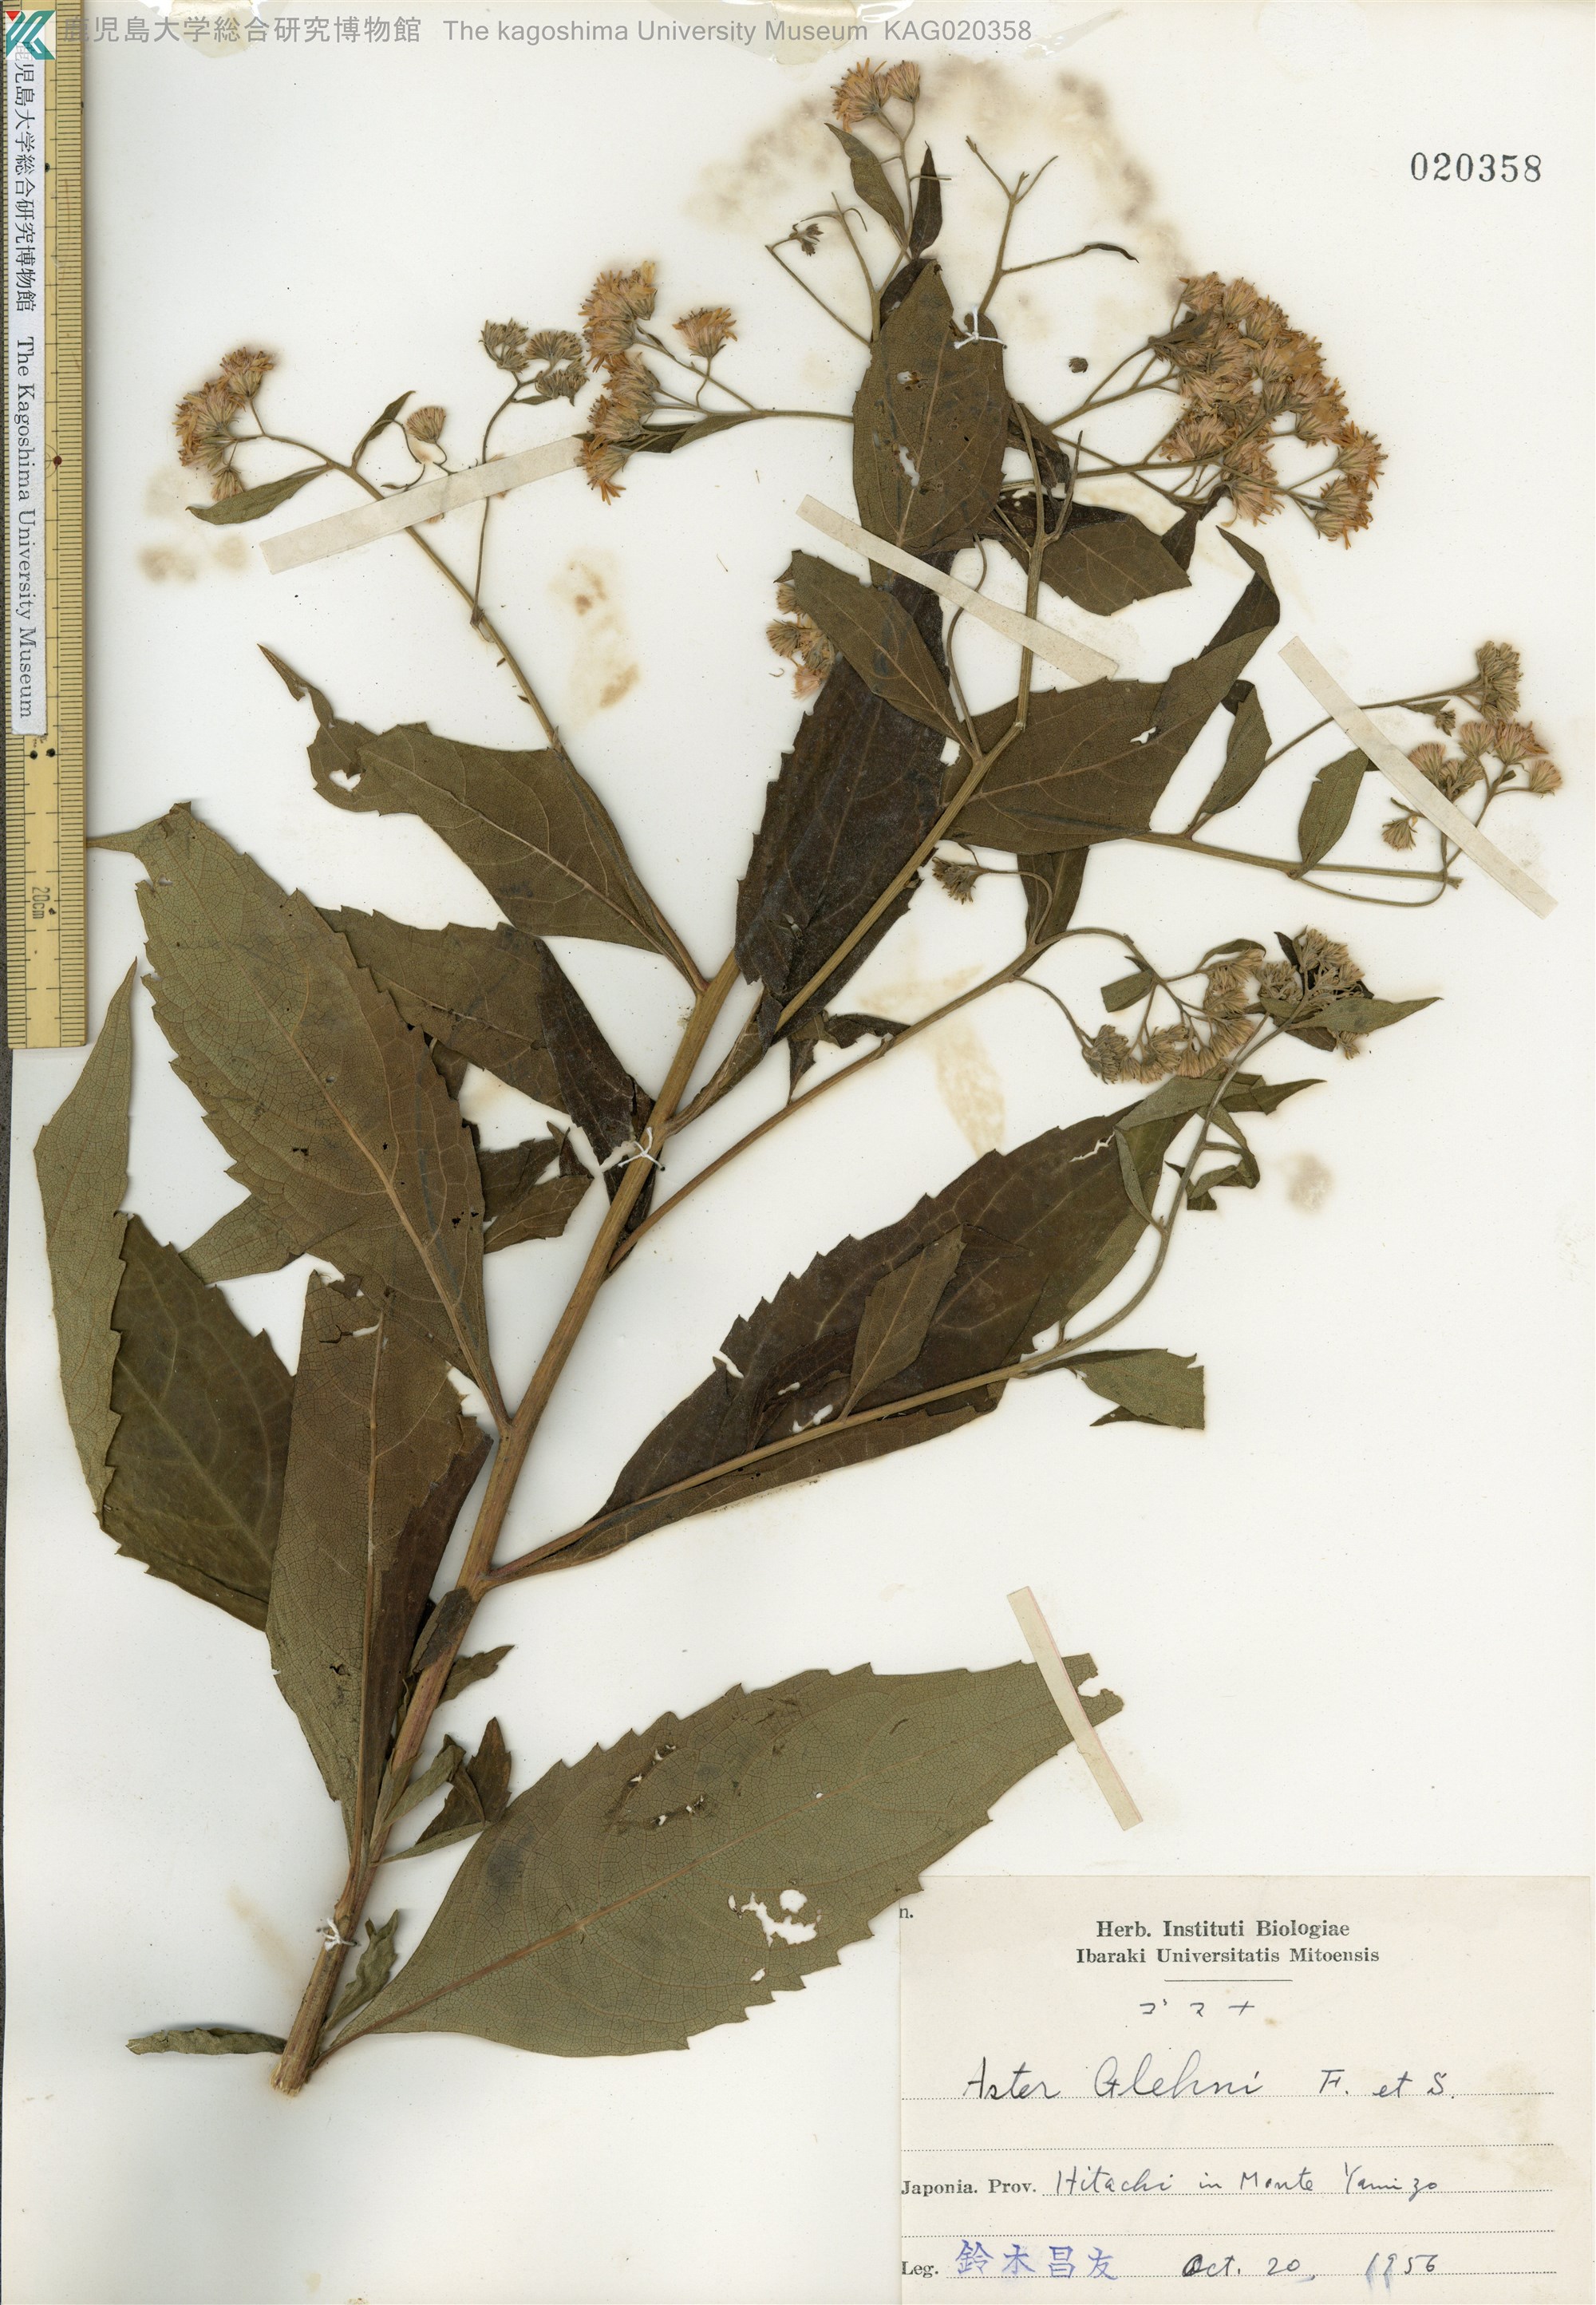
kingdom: Plantae
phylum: Tracheophyta
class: Magnoliopsida
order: Asterales
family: Asteraceae
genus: Kitamuria
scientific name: Kitamuria glehnii
